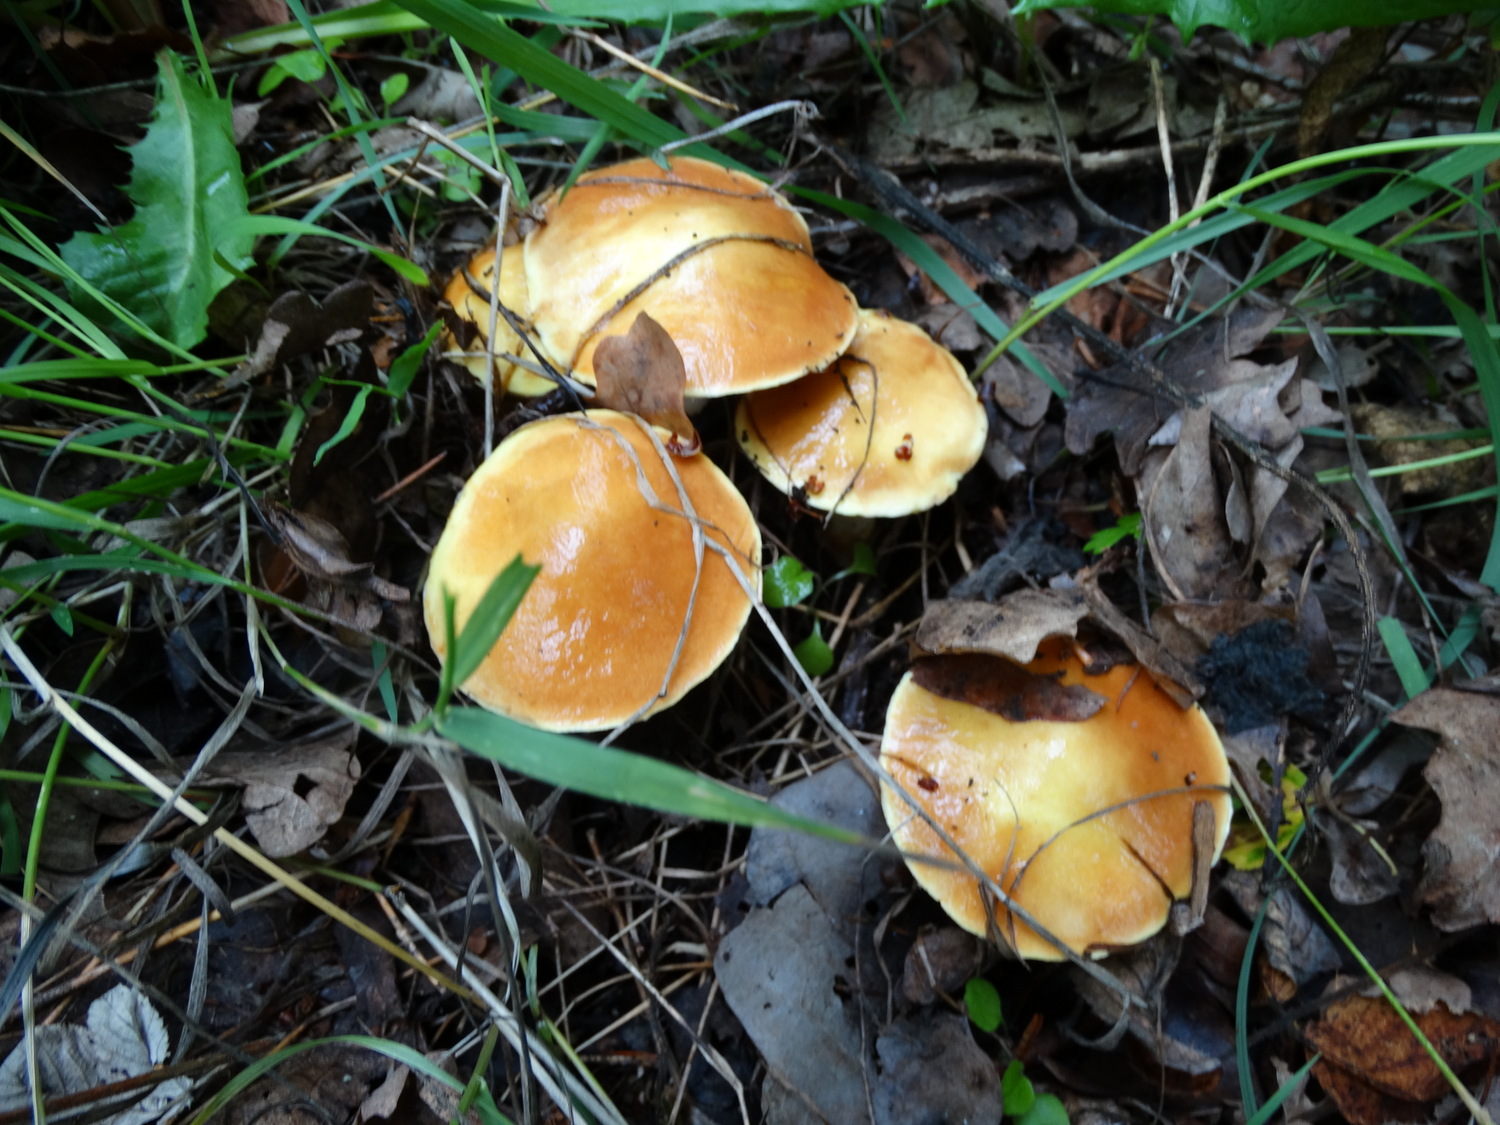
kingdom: Fungi
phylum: Basidiomycota
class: Agaricomycetes
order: Boletales
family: Suillaceae
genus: Suillus
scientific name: Suillus grevillei
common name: lærke-slimrørhat
